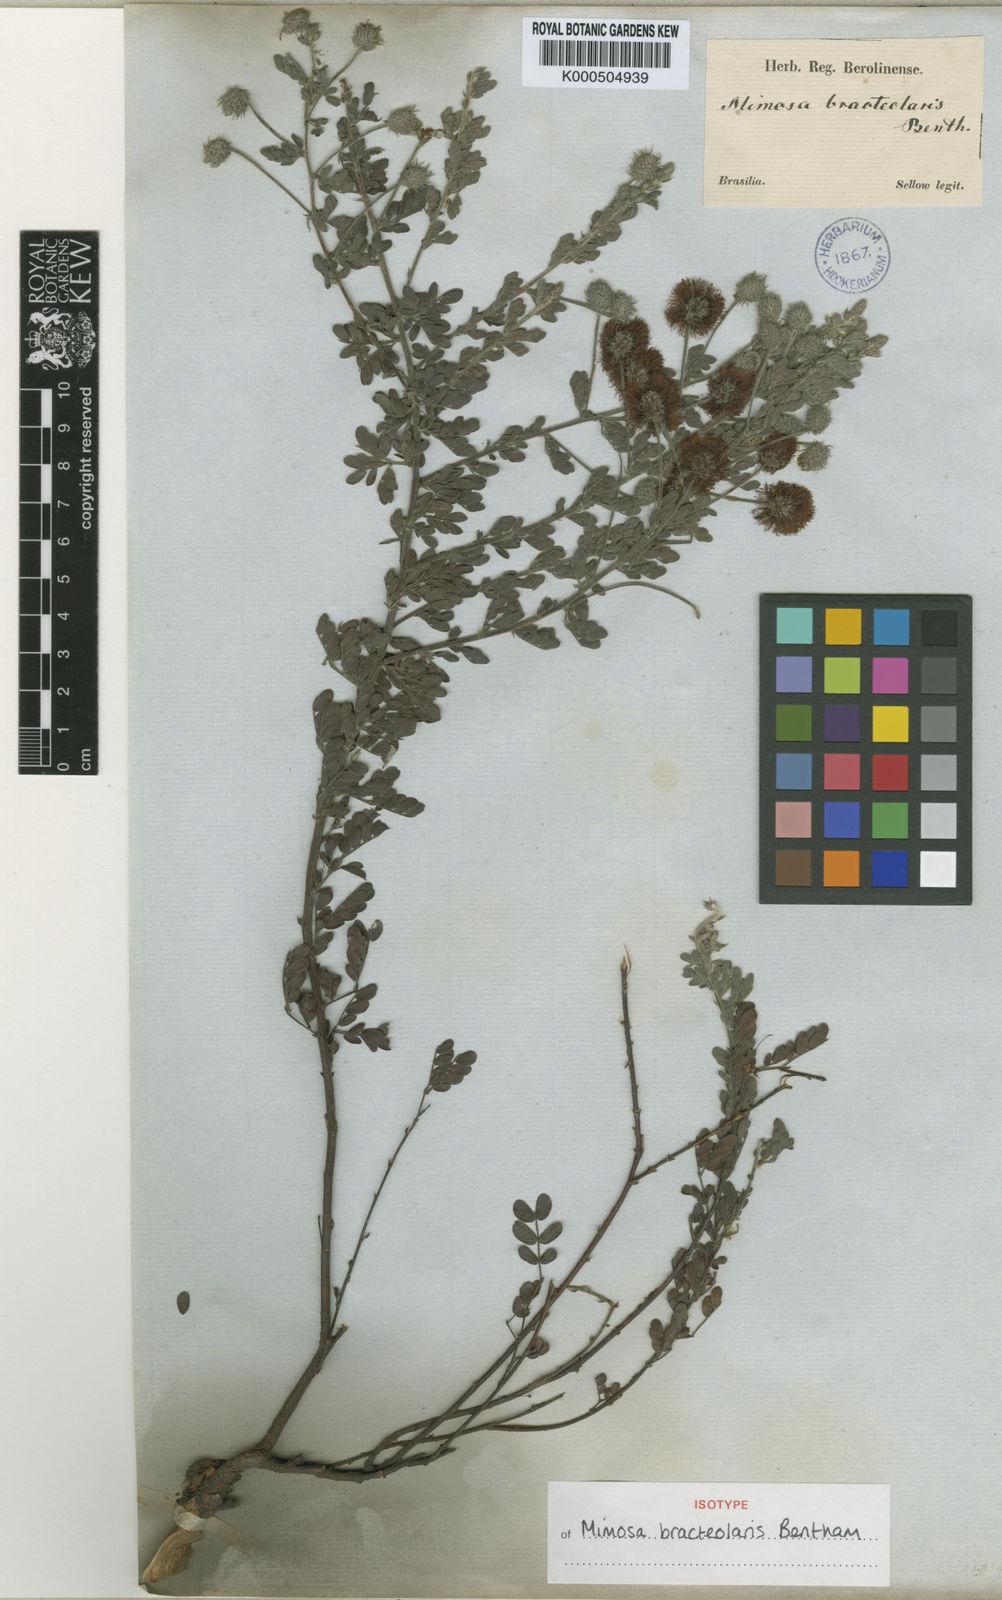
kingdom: Plantae
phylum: Tracheophyta
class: Magnoliopsida
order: Fabales
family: Fabaceae
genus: Mimosa
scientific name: Mimosa bracteolaris
